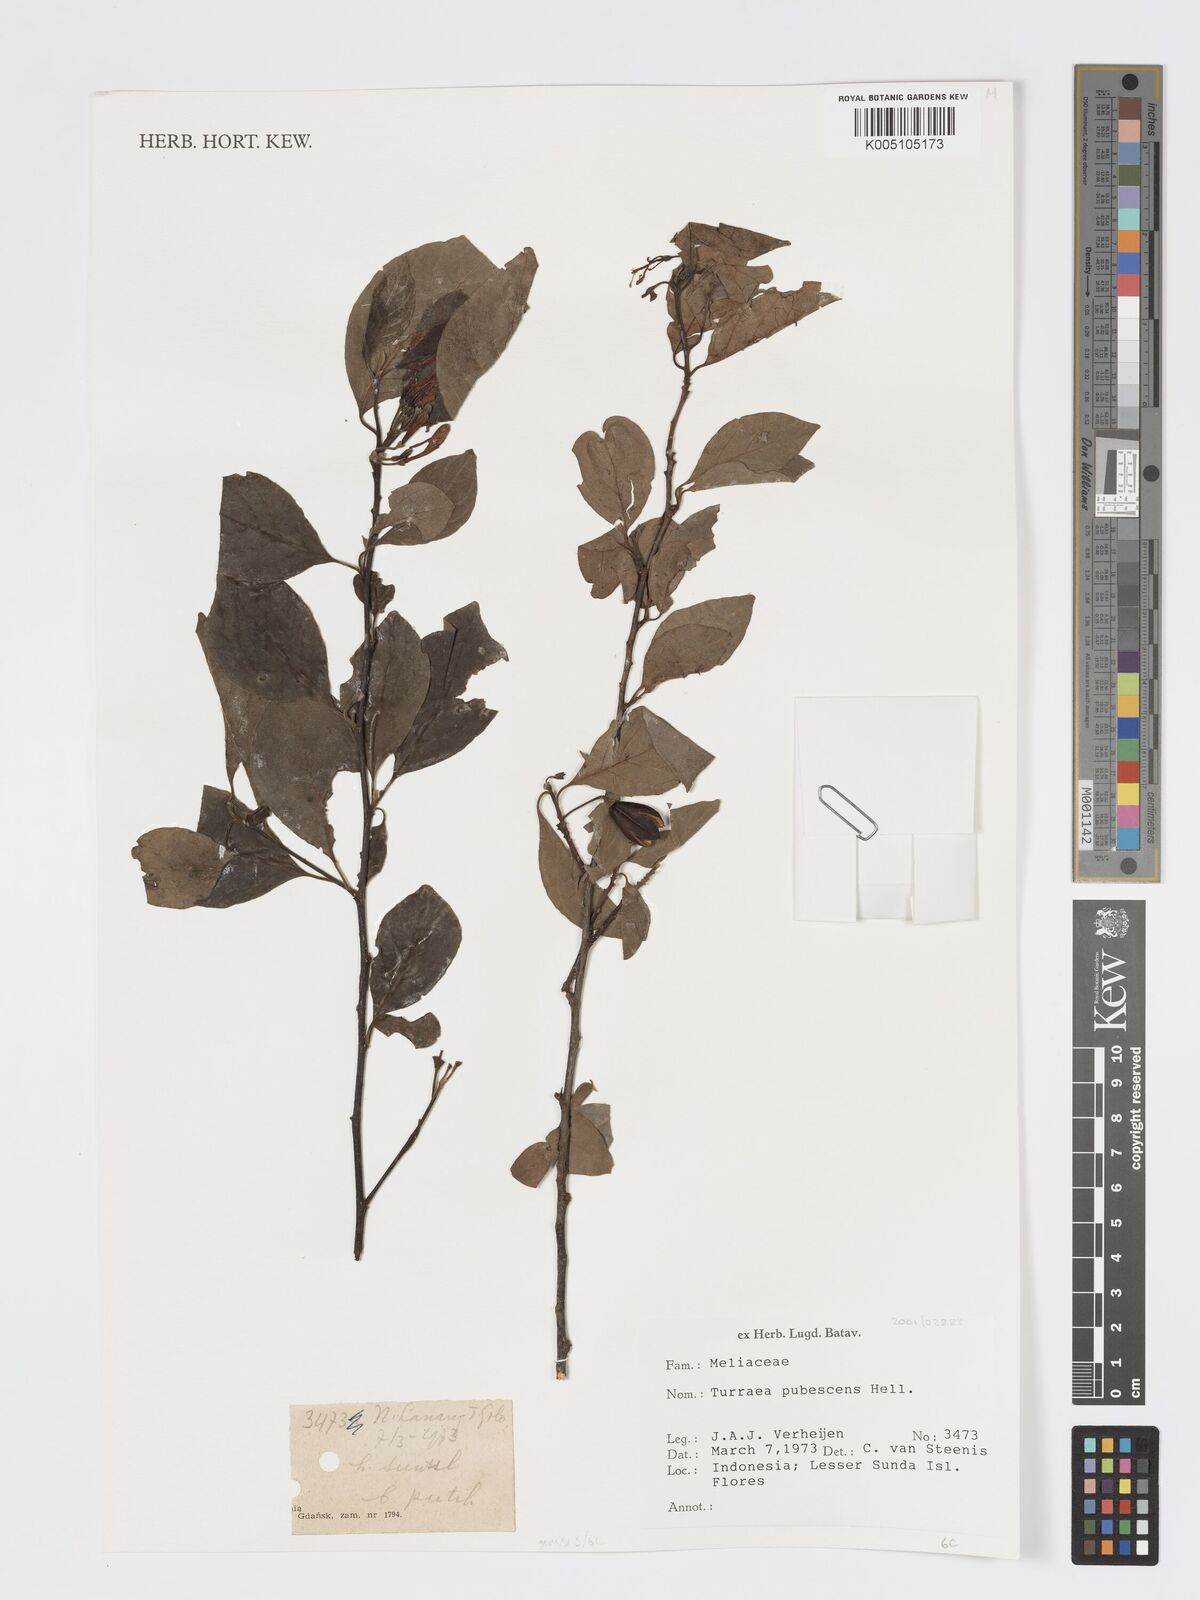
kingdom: Plantae
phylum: Tracheophyta
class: Magnoliopsida
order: Sapindales
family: Meliaceae
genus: Turraea
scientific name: Turraea
